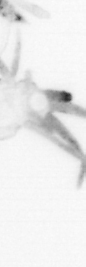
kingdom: Animalia
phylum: Annelida
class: Polychaeta
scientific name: Polychaeta
